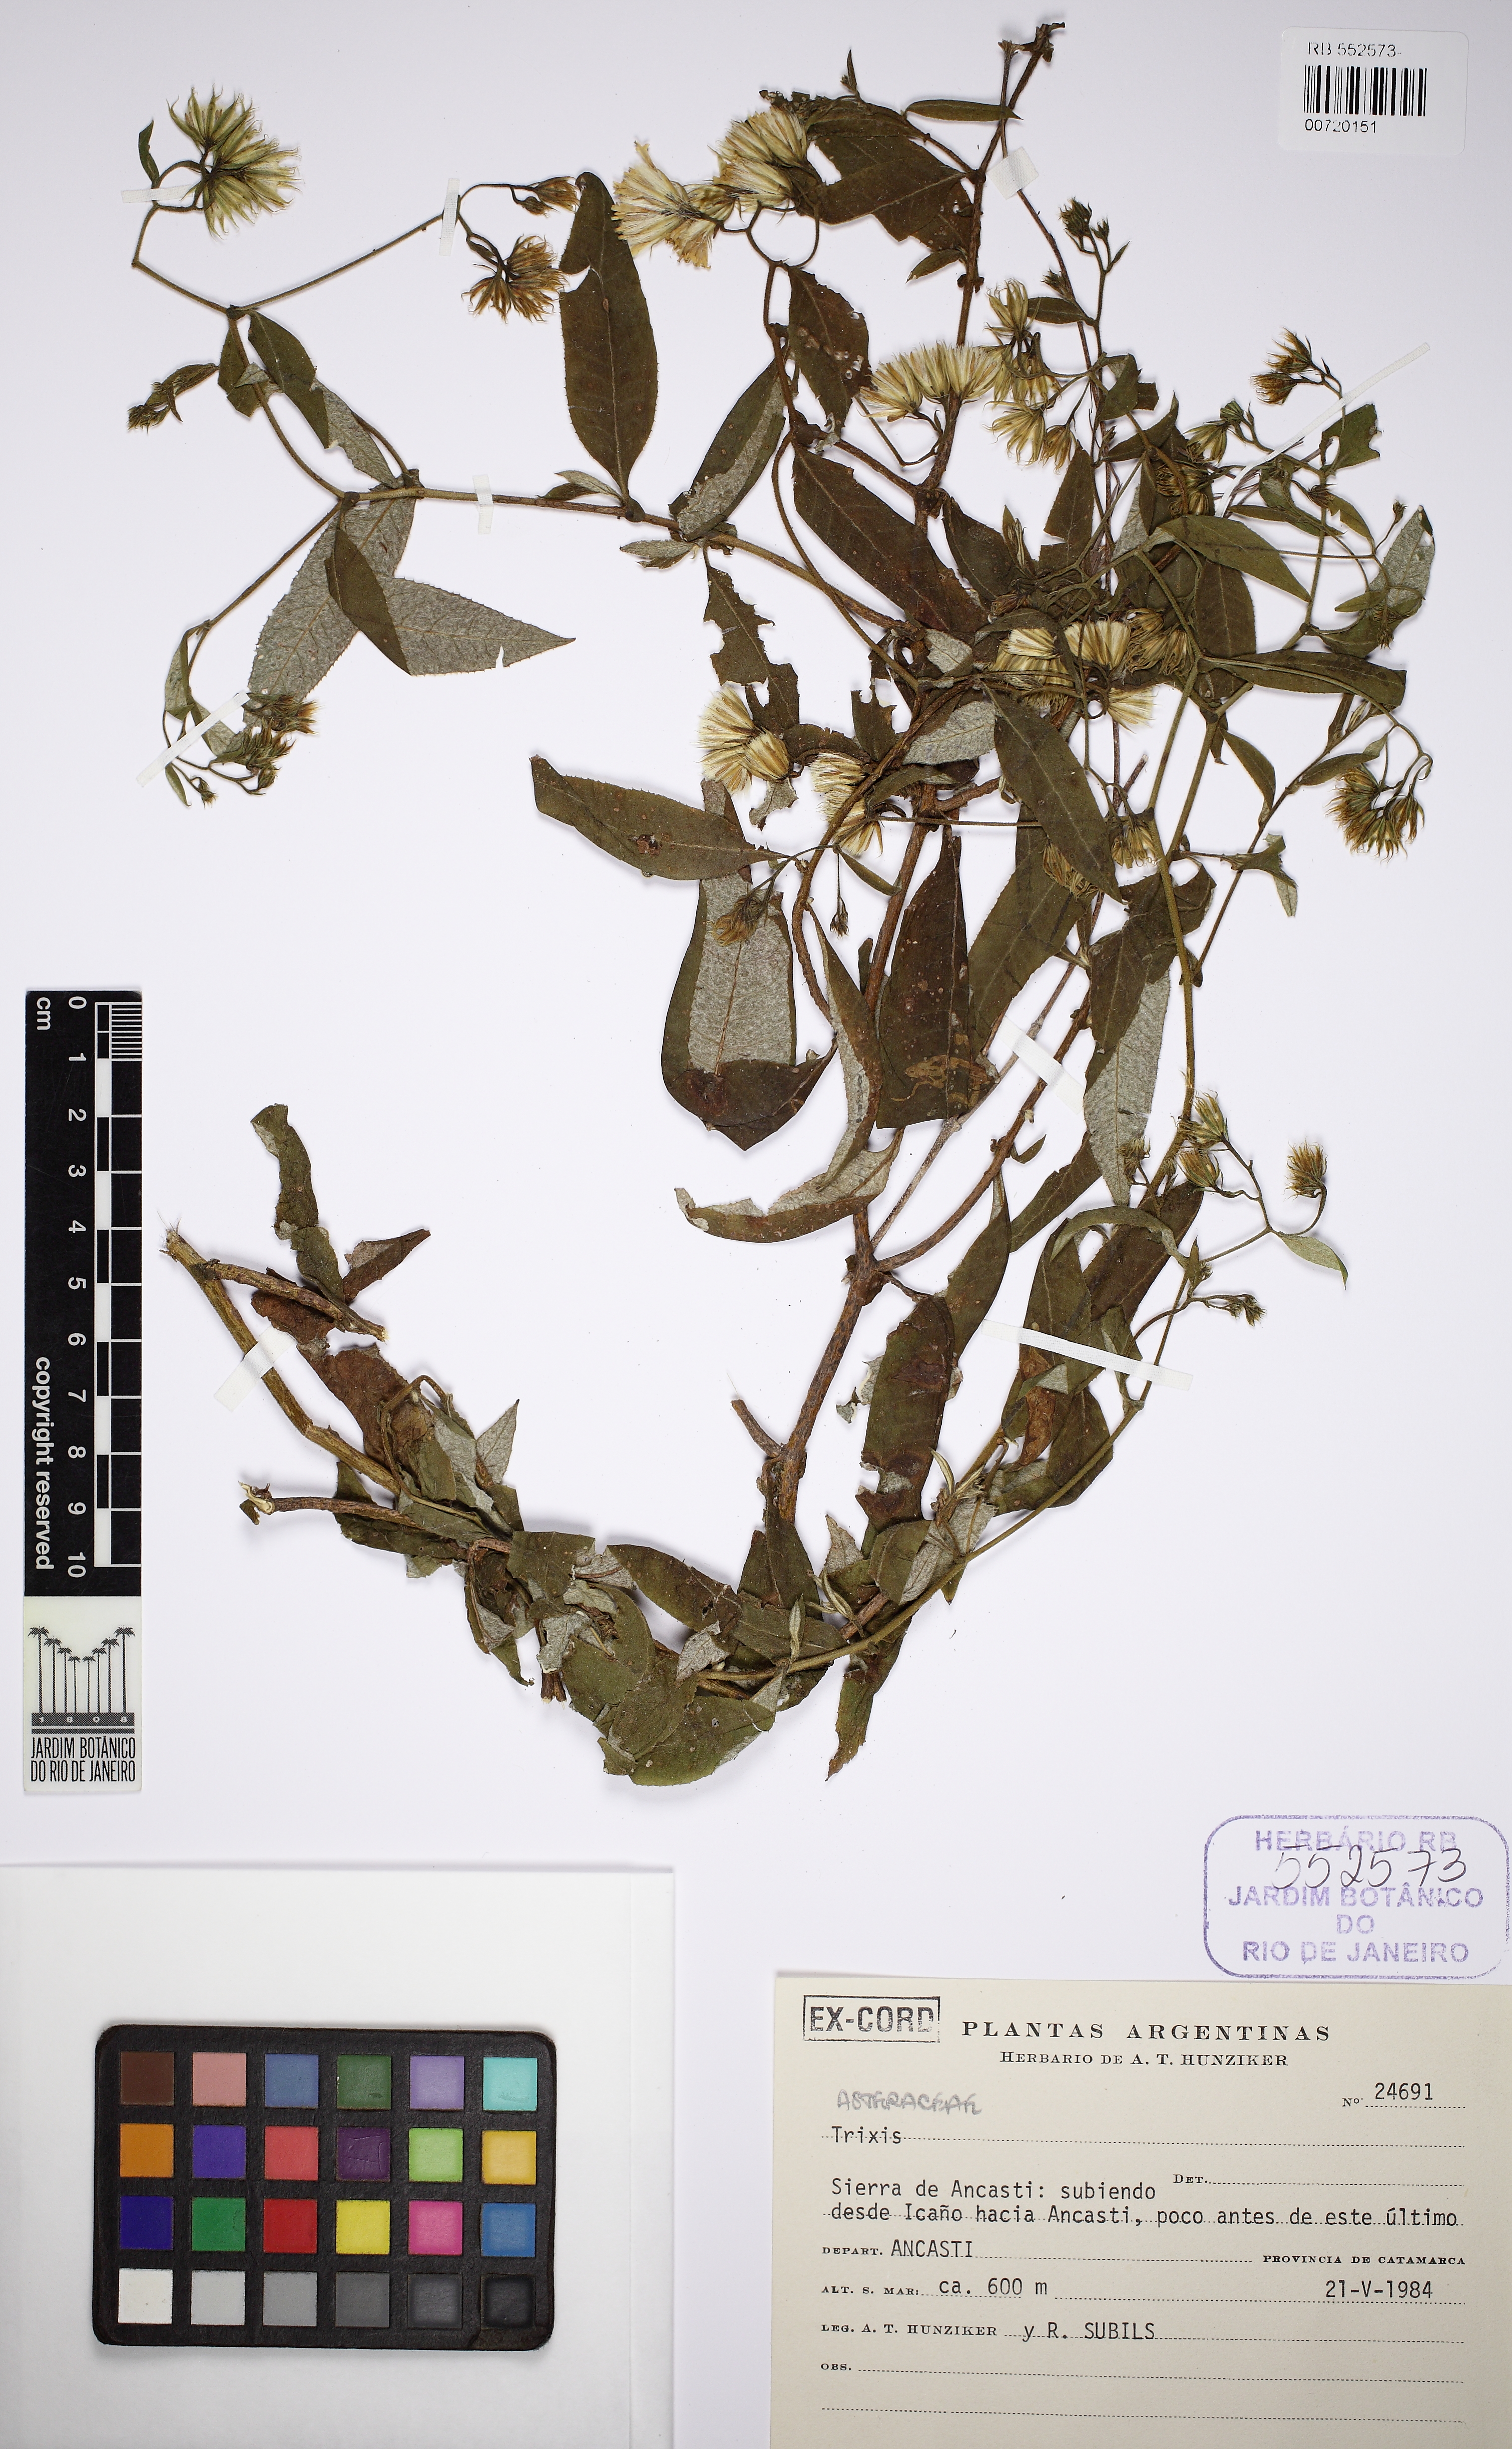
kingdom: Plantae
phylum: Tracheophyta
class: Magnoliopsida
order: Asterales
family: Asteraceae
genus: Trixis
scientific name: Trixis divaricata
